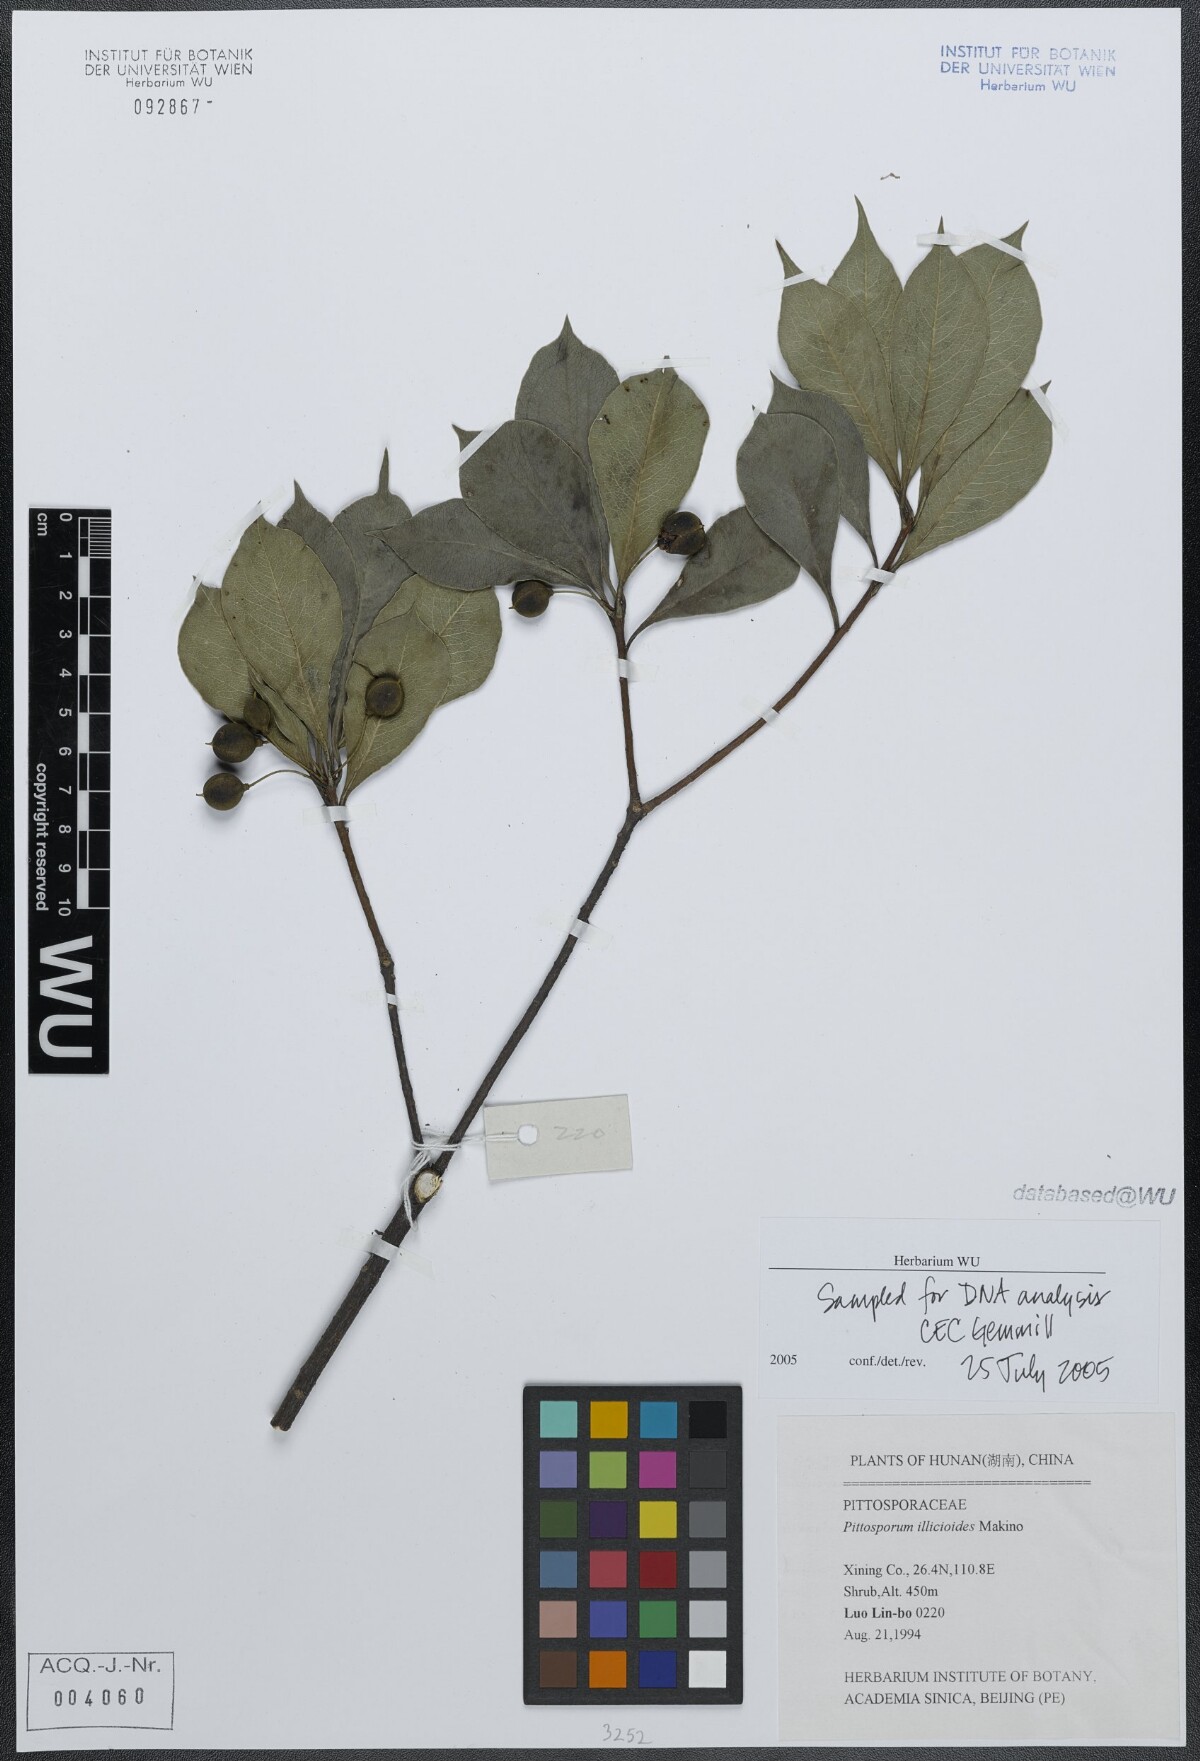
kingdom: Plantae
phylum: Tracheophyta
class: Magnoliopsida
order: Apiales
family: Pittosporaceae
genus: Pittosporum
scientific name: Pittosporum illicioides
